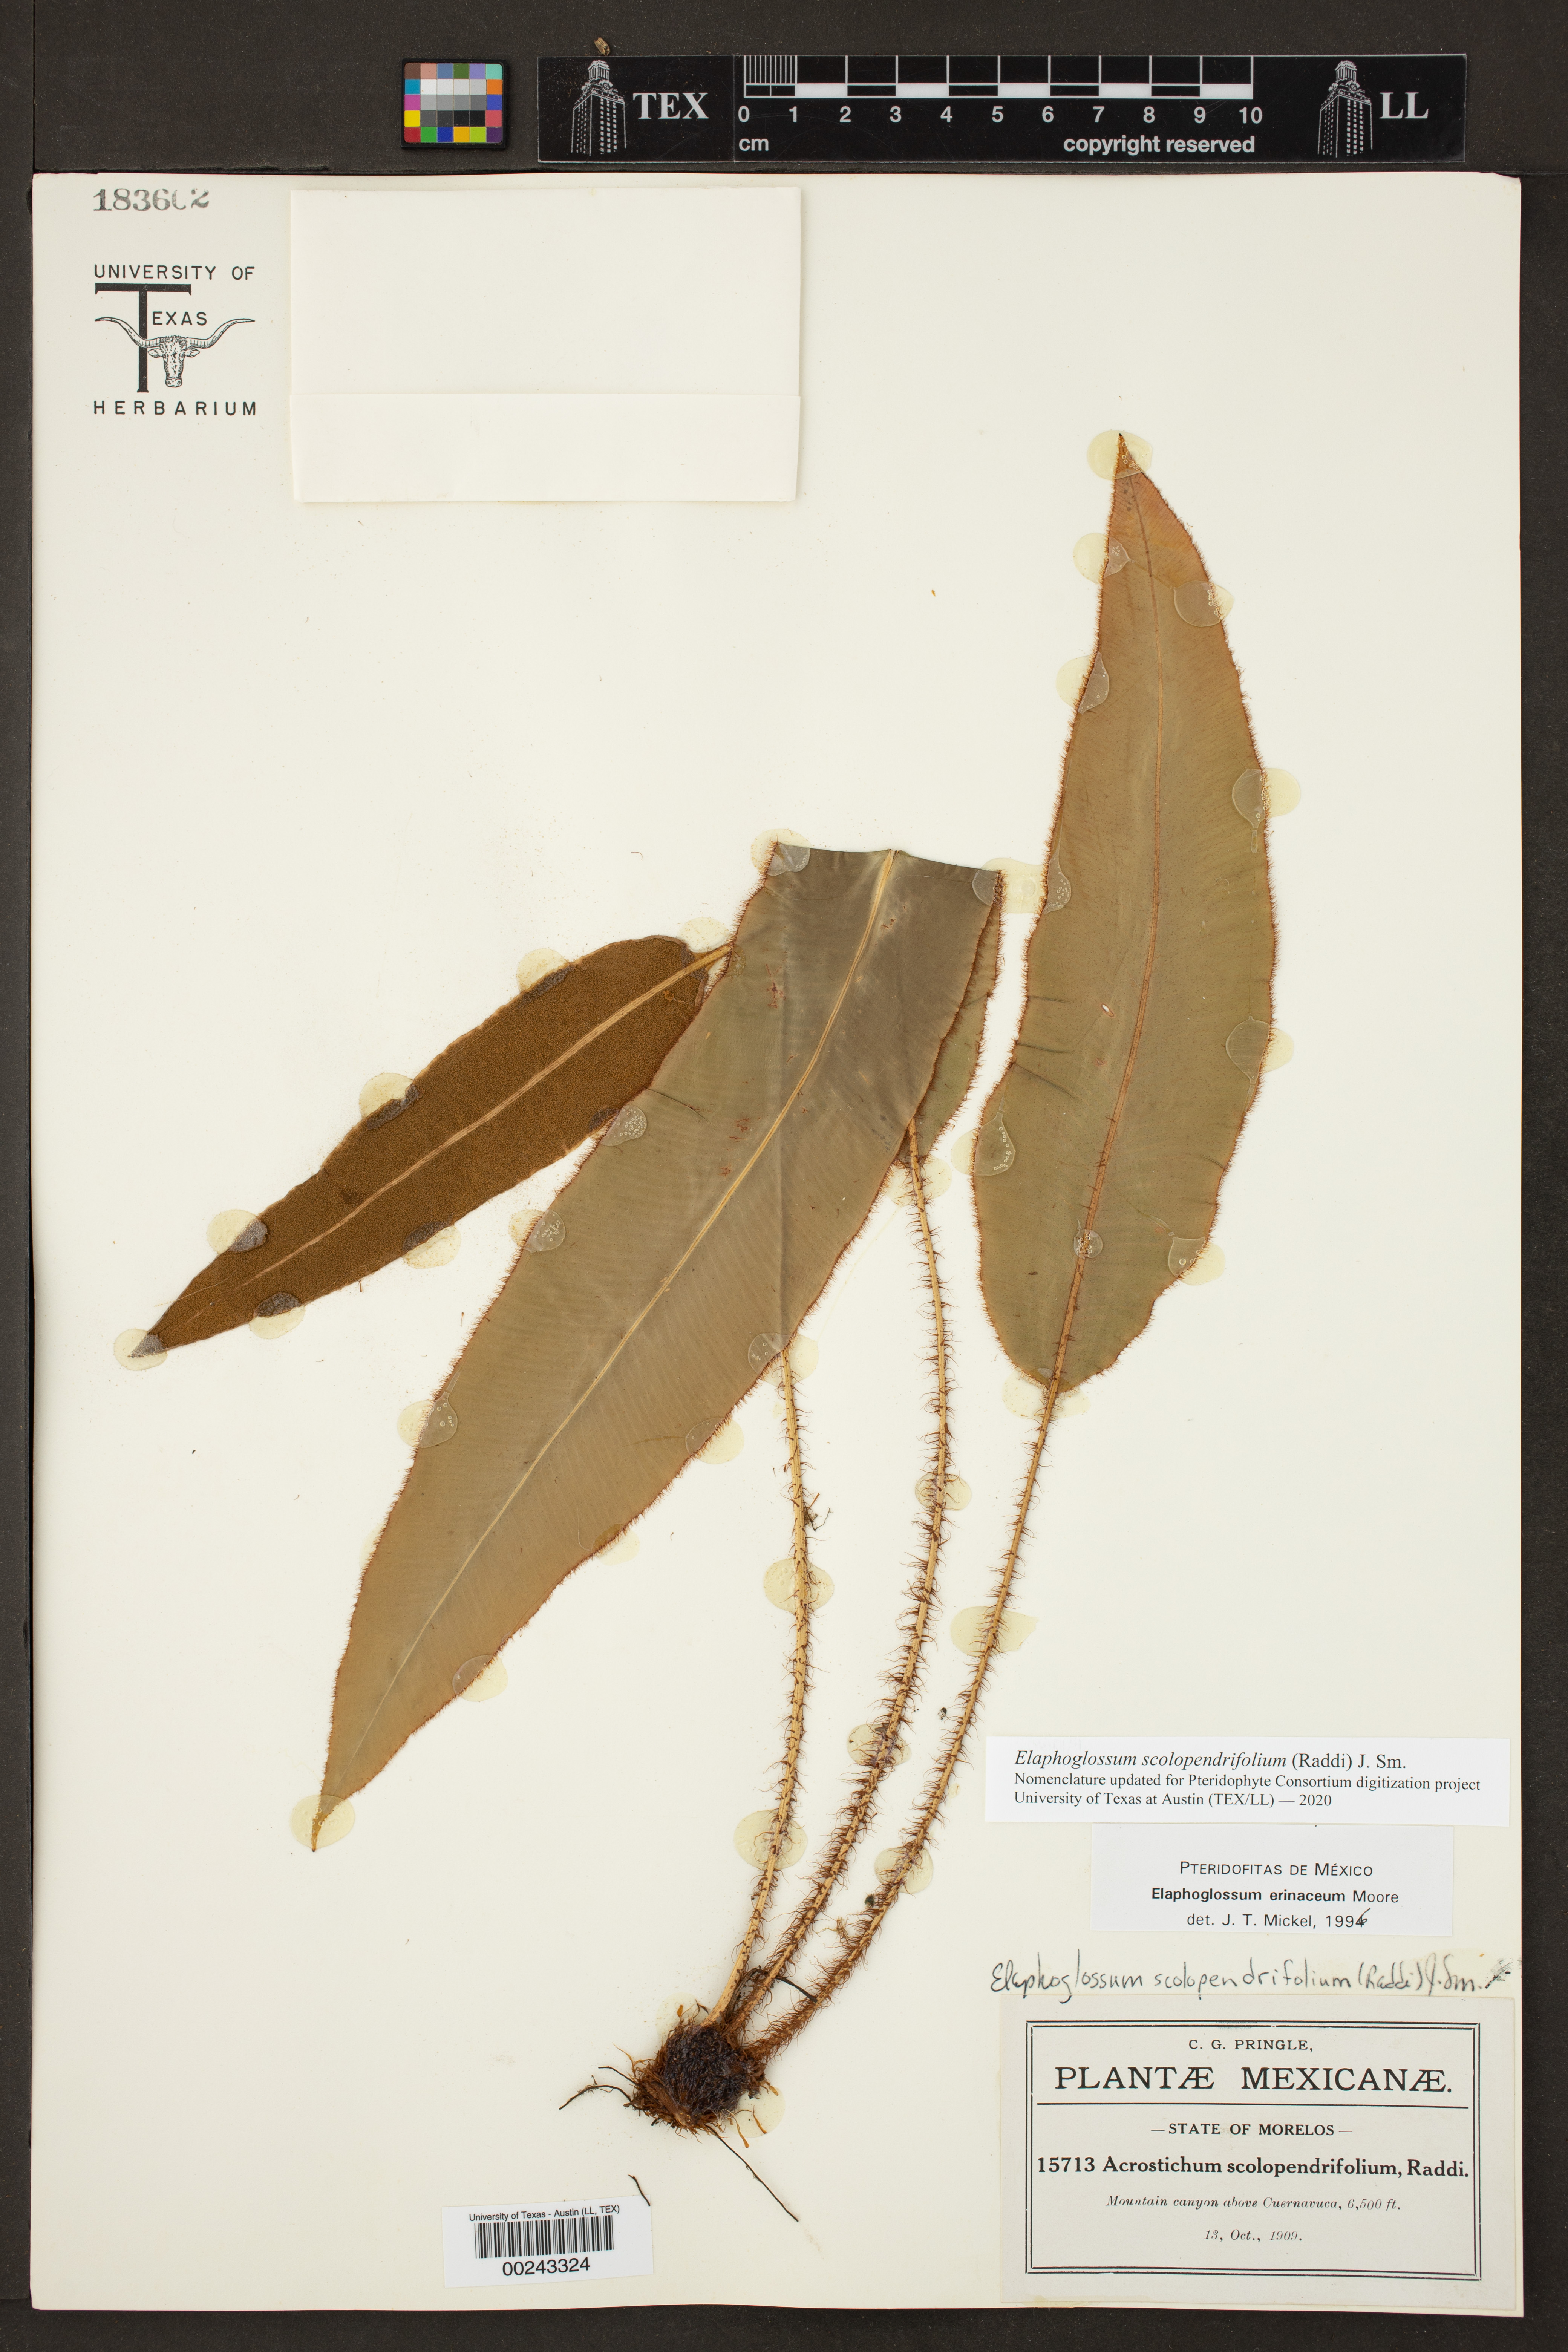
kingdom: Plantae
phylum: Tracheophyta
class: Polypodiopsida
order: Polypodiales
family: Dryopteridaceae
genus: Elaphoglossum
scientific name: Elaphoglossum erinaceum
